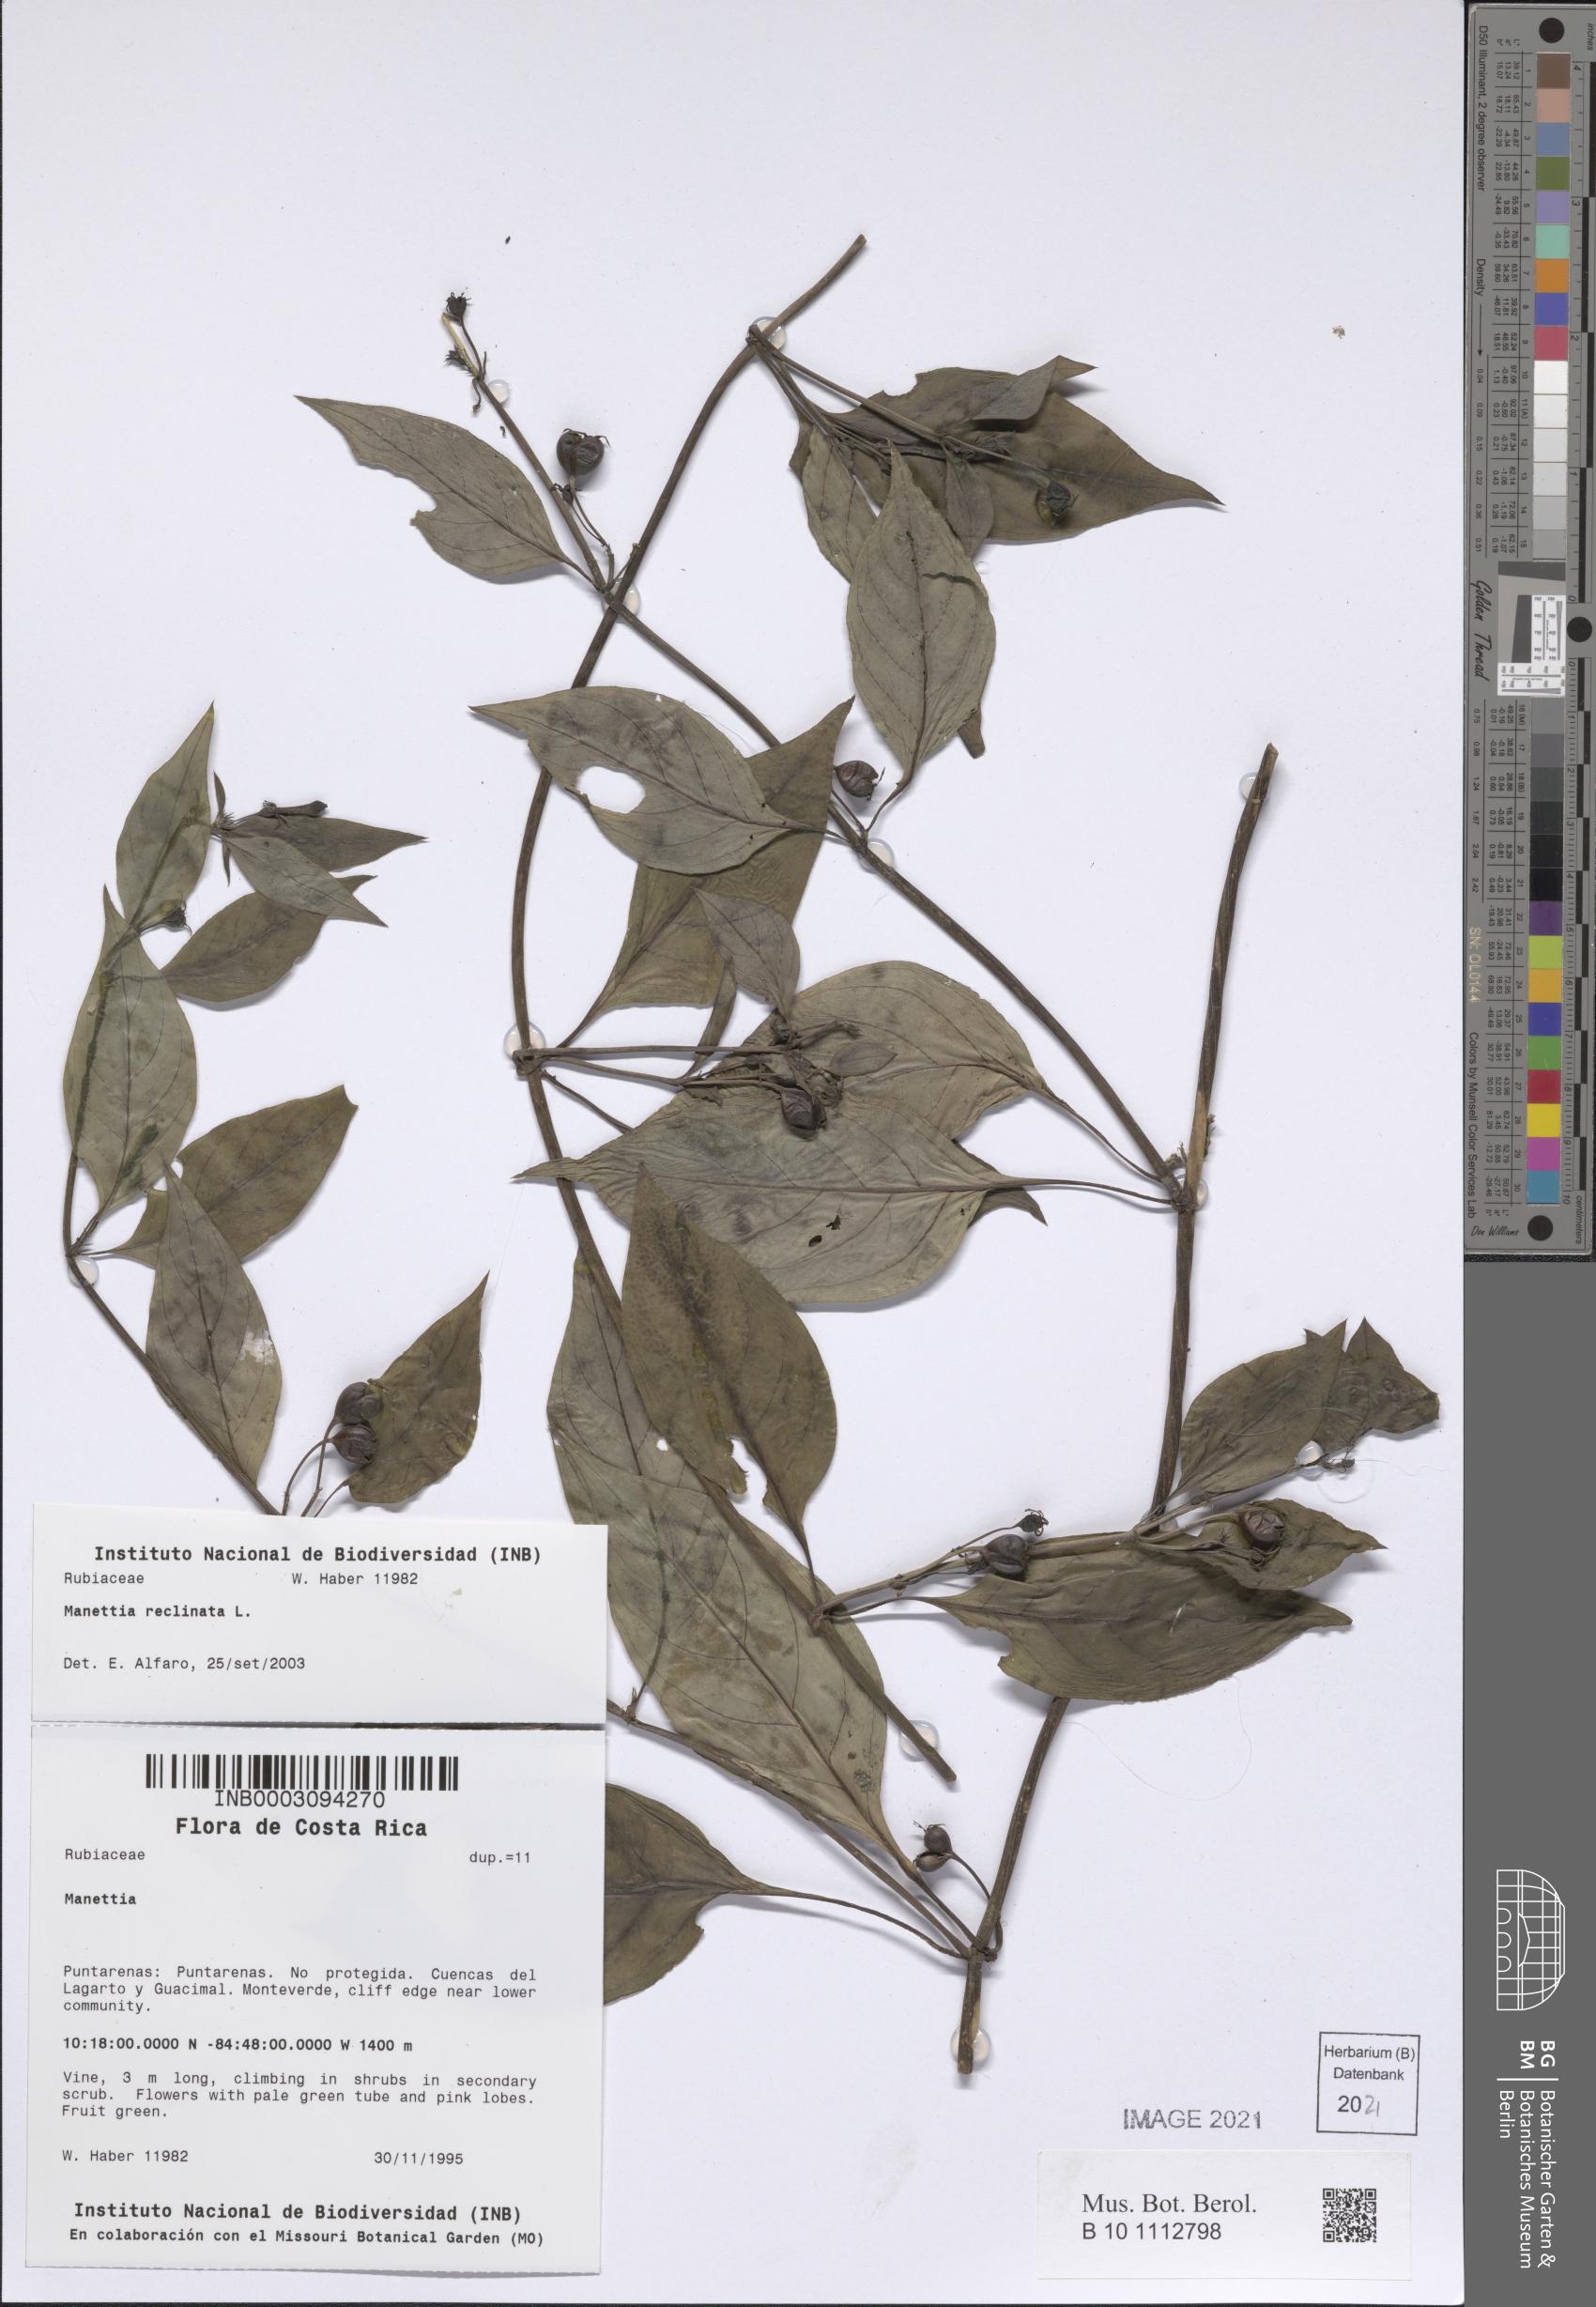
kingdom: Plantae
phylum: Tracheophyta
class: Magnoliopsida
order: Gentianales
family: Rubiaceae
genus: Manettia
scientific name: Manettia reclinata
